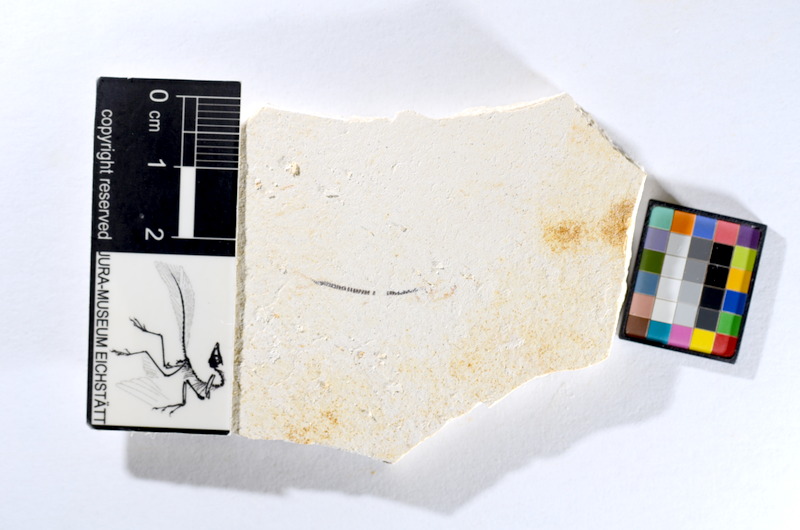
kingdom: Animalia
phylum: Chordata
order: Salmoniformes
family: Orthogonikleithridae
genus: Orthogonikleithrus
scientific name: Orthogonikleithrus hoelli
